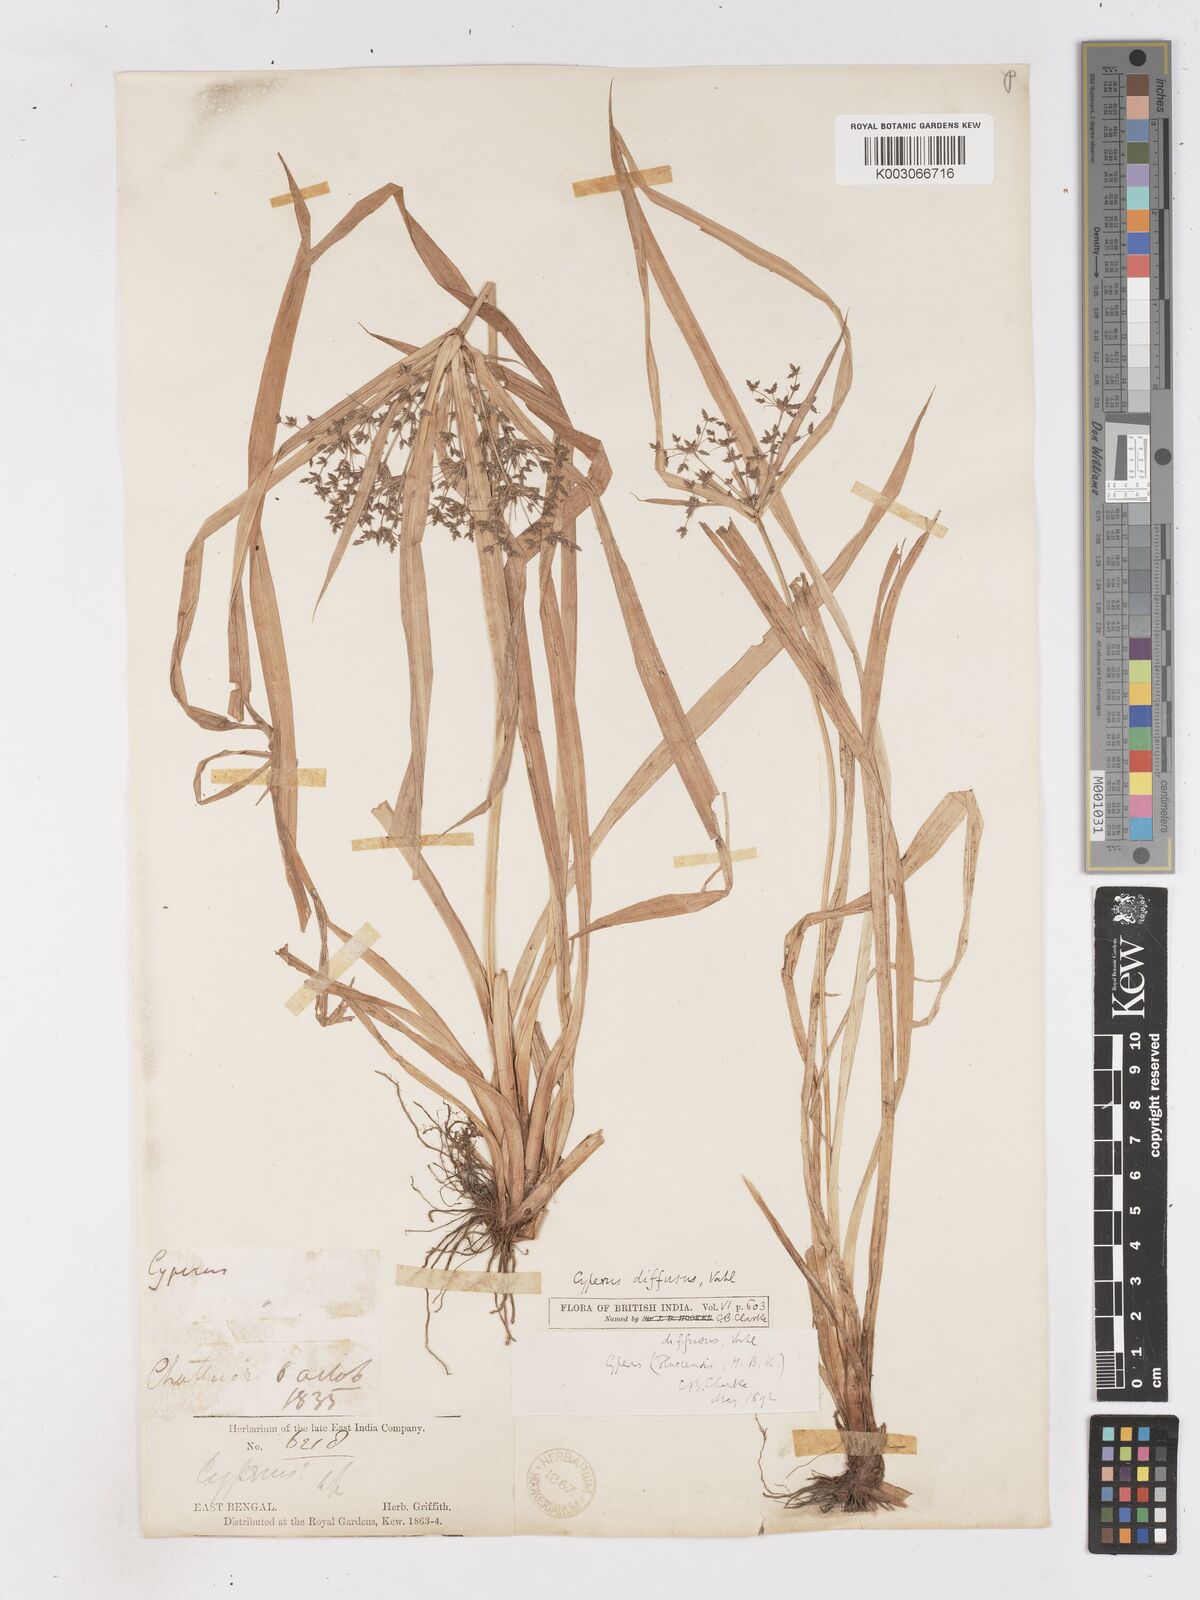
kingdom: Plantae
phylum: Tracheophyta
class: Liliopsida
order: Poales
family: Cyperaceae
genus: Cyperus
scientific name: Cyperus diffusus
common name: Dwarf umbrella grass
